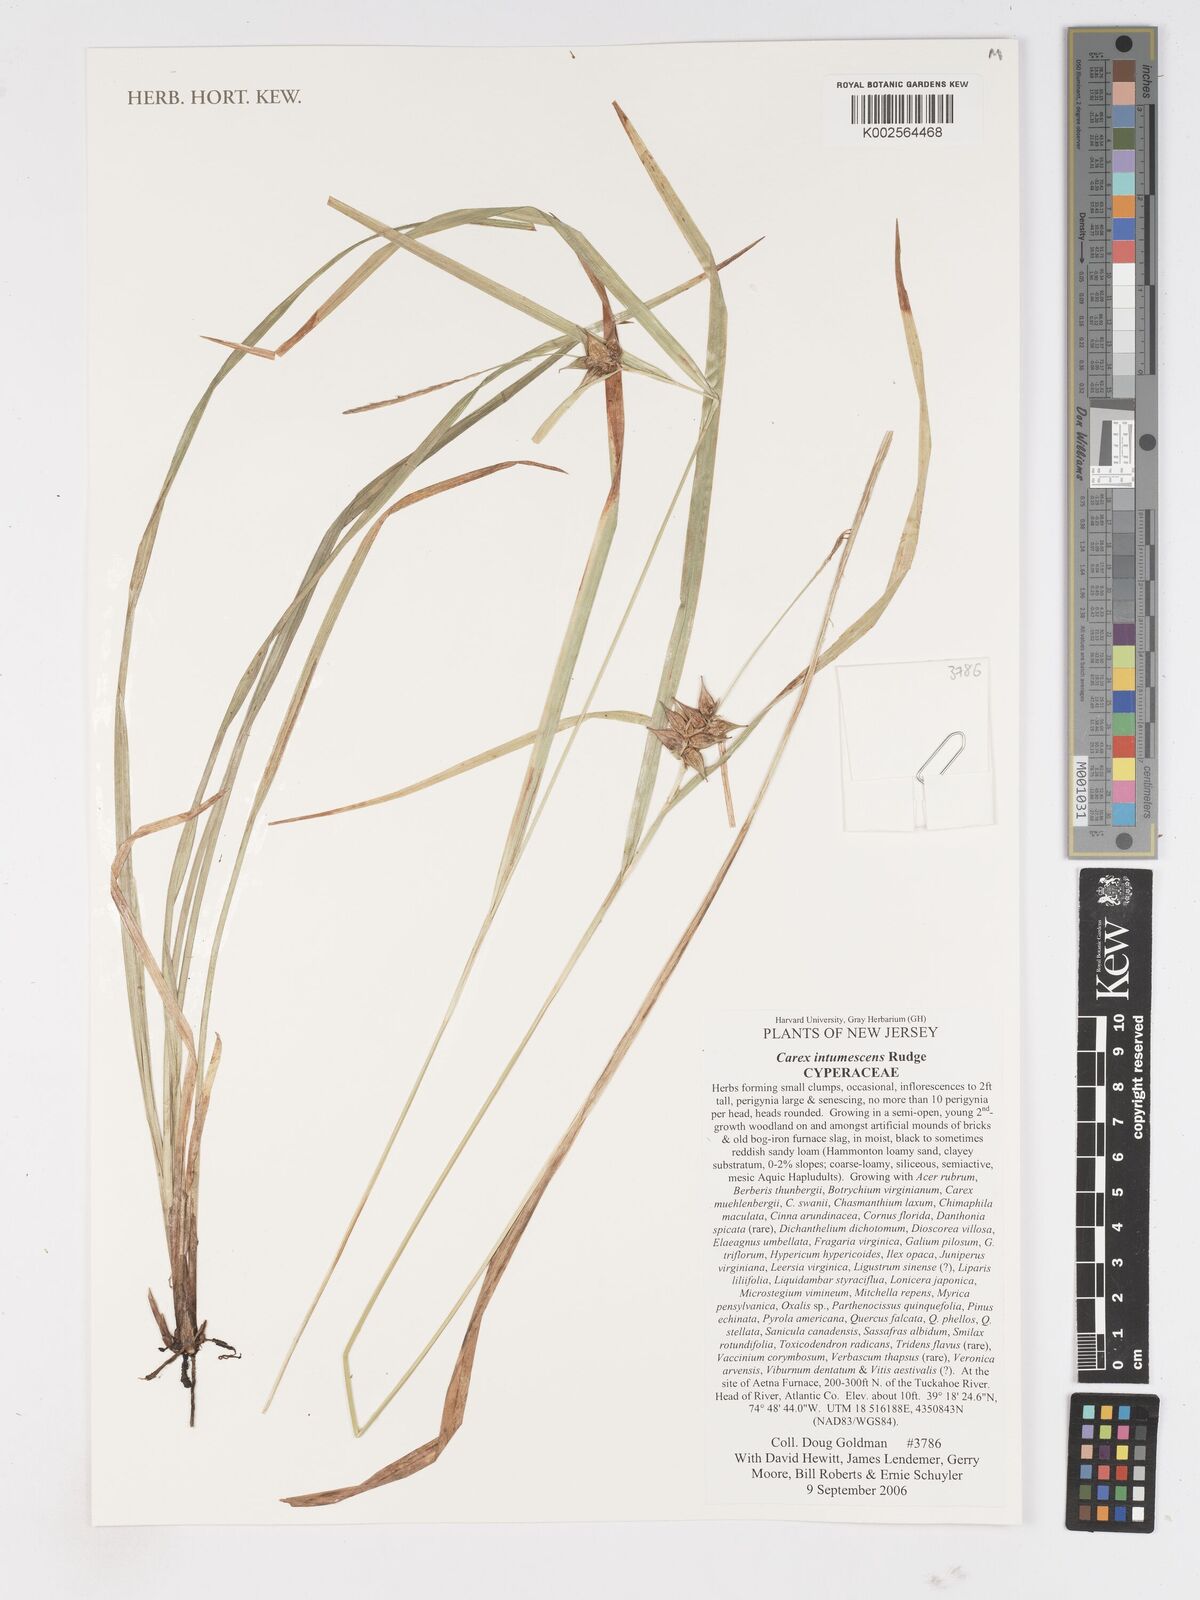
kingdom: Plantae
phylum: Tracheophyta
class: Liliopsida
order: Poales
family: Cyperaceae
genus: Carex
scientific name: Carex intumescens
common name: Greater bladder sedge
